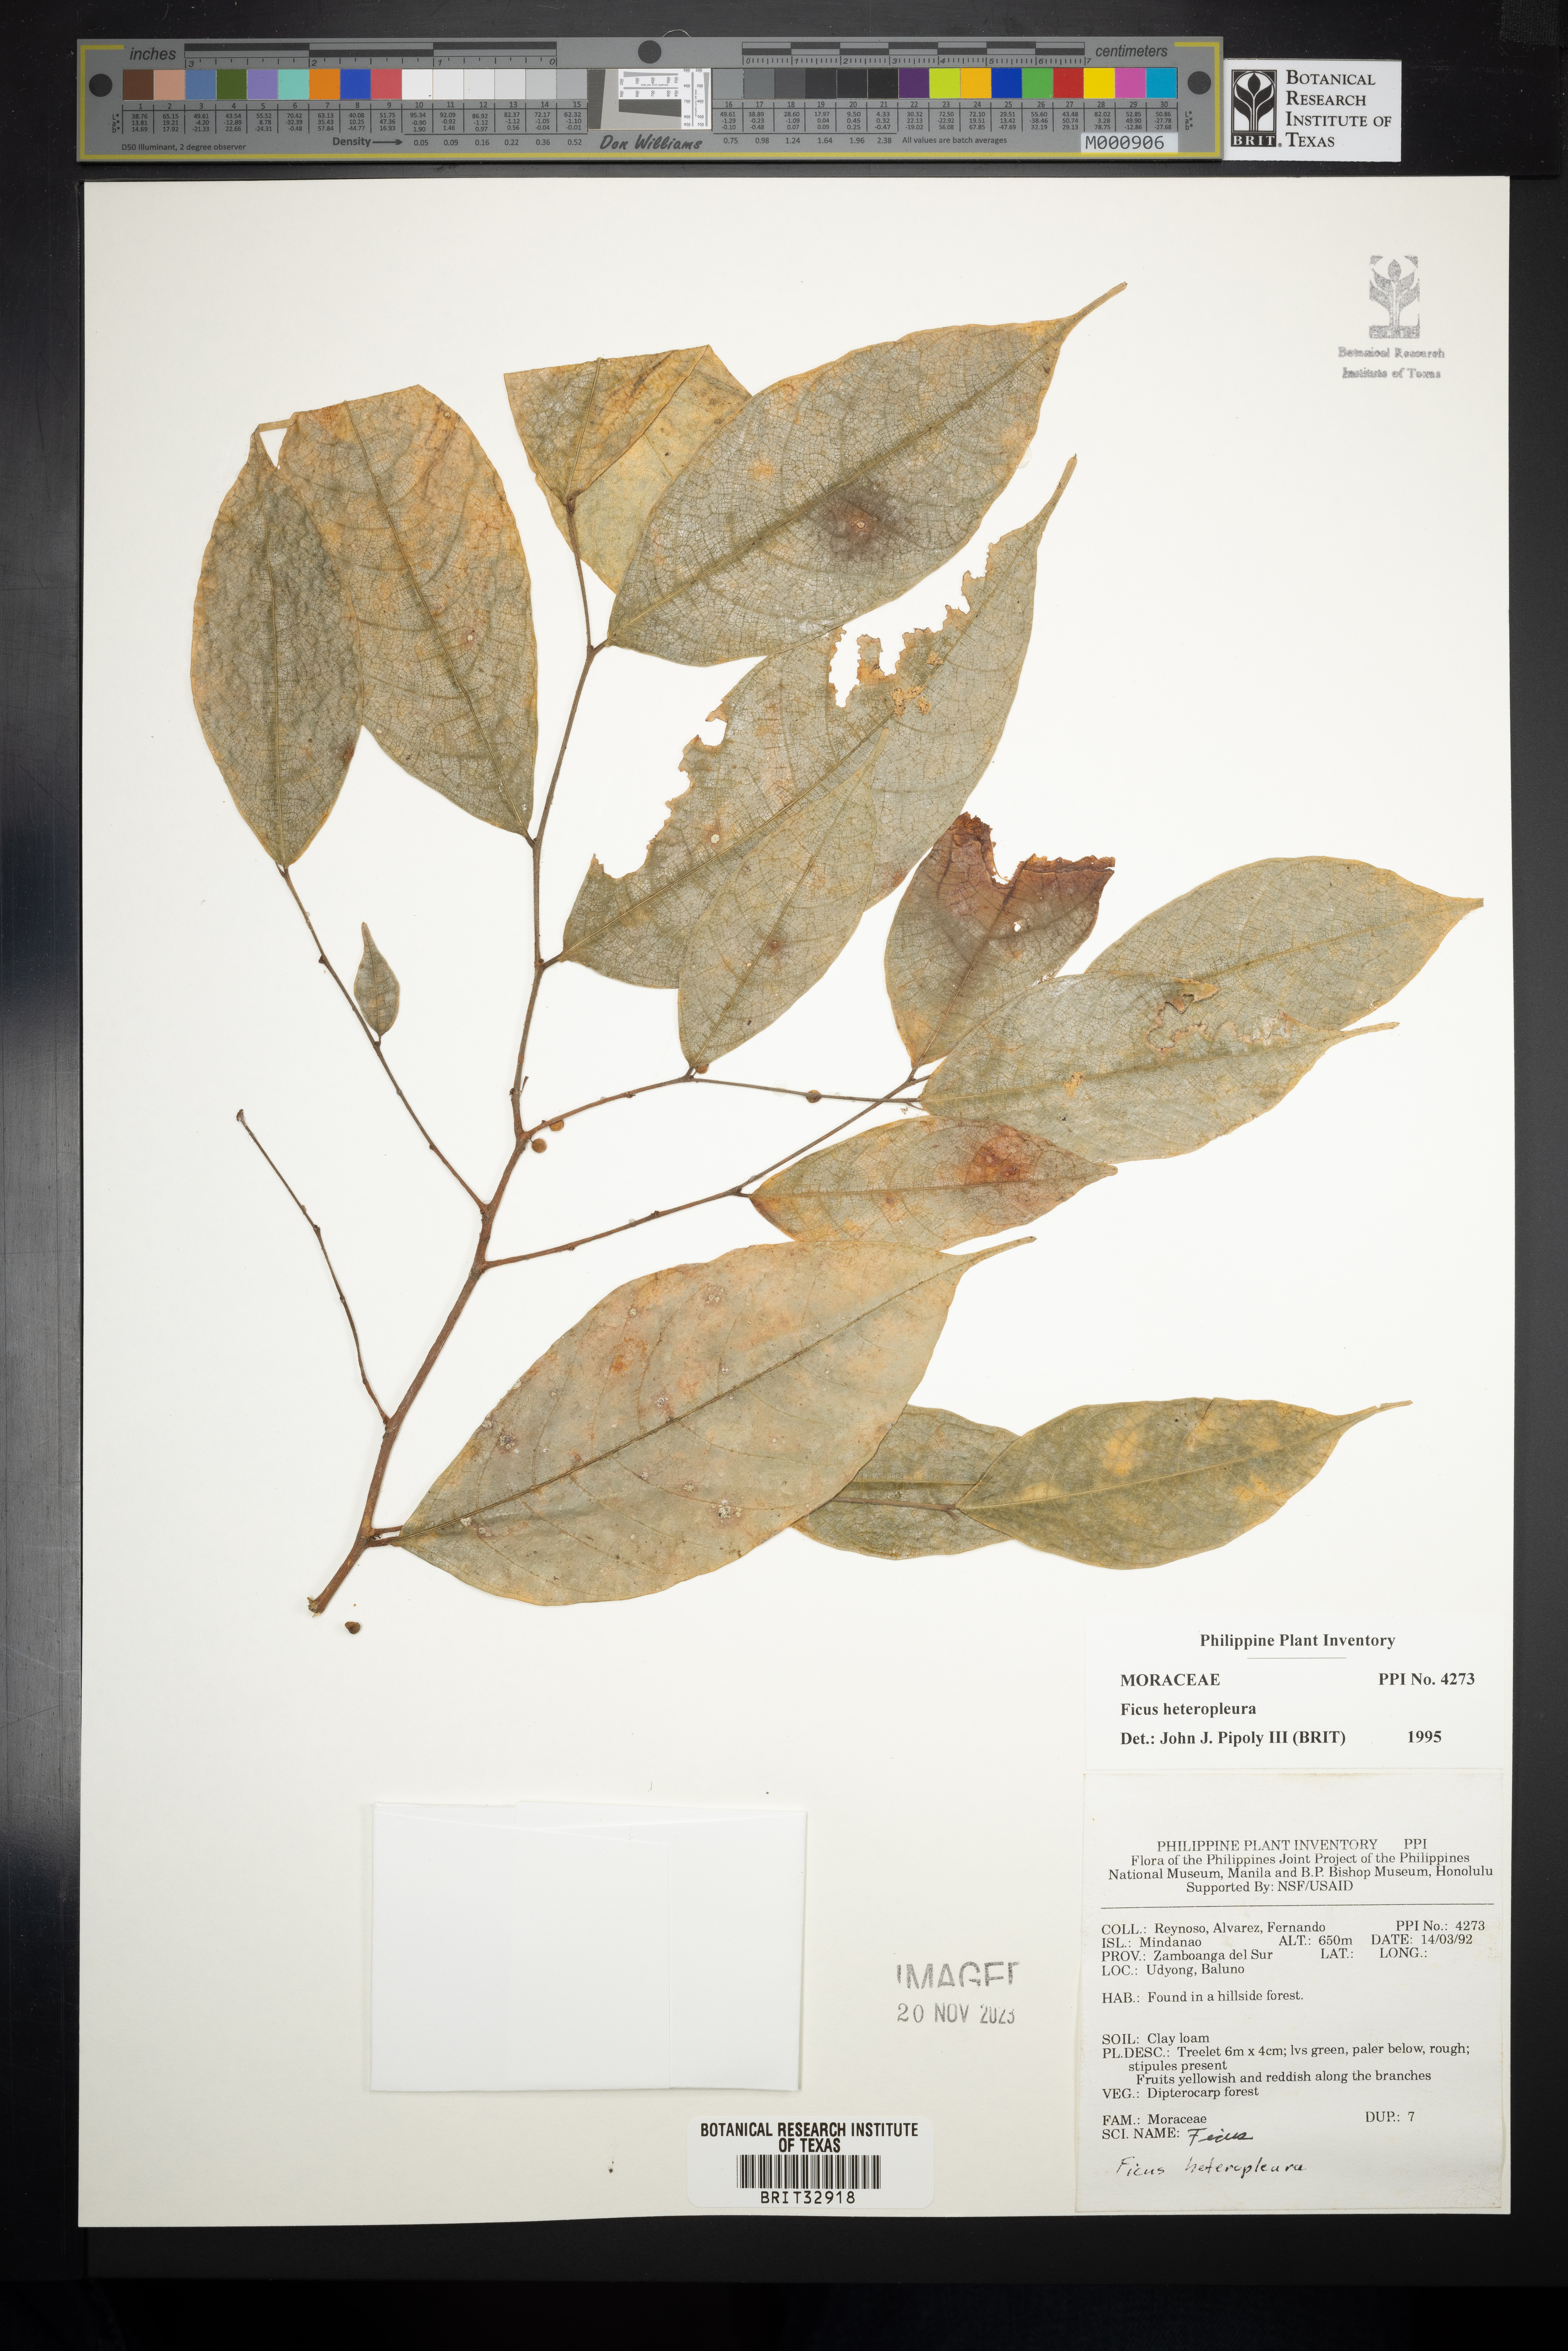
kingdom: Plantae
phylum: Tracheophyta
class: Magnoliopsida
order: Rosales
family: Moraceae
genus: Ficus
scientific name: Ficus heteropleura
